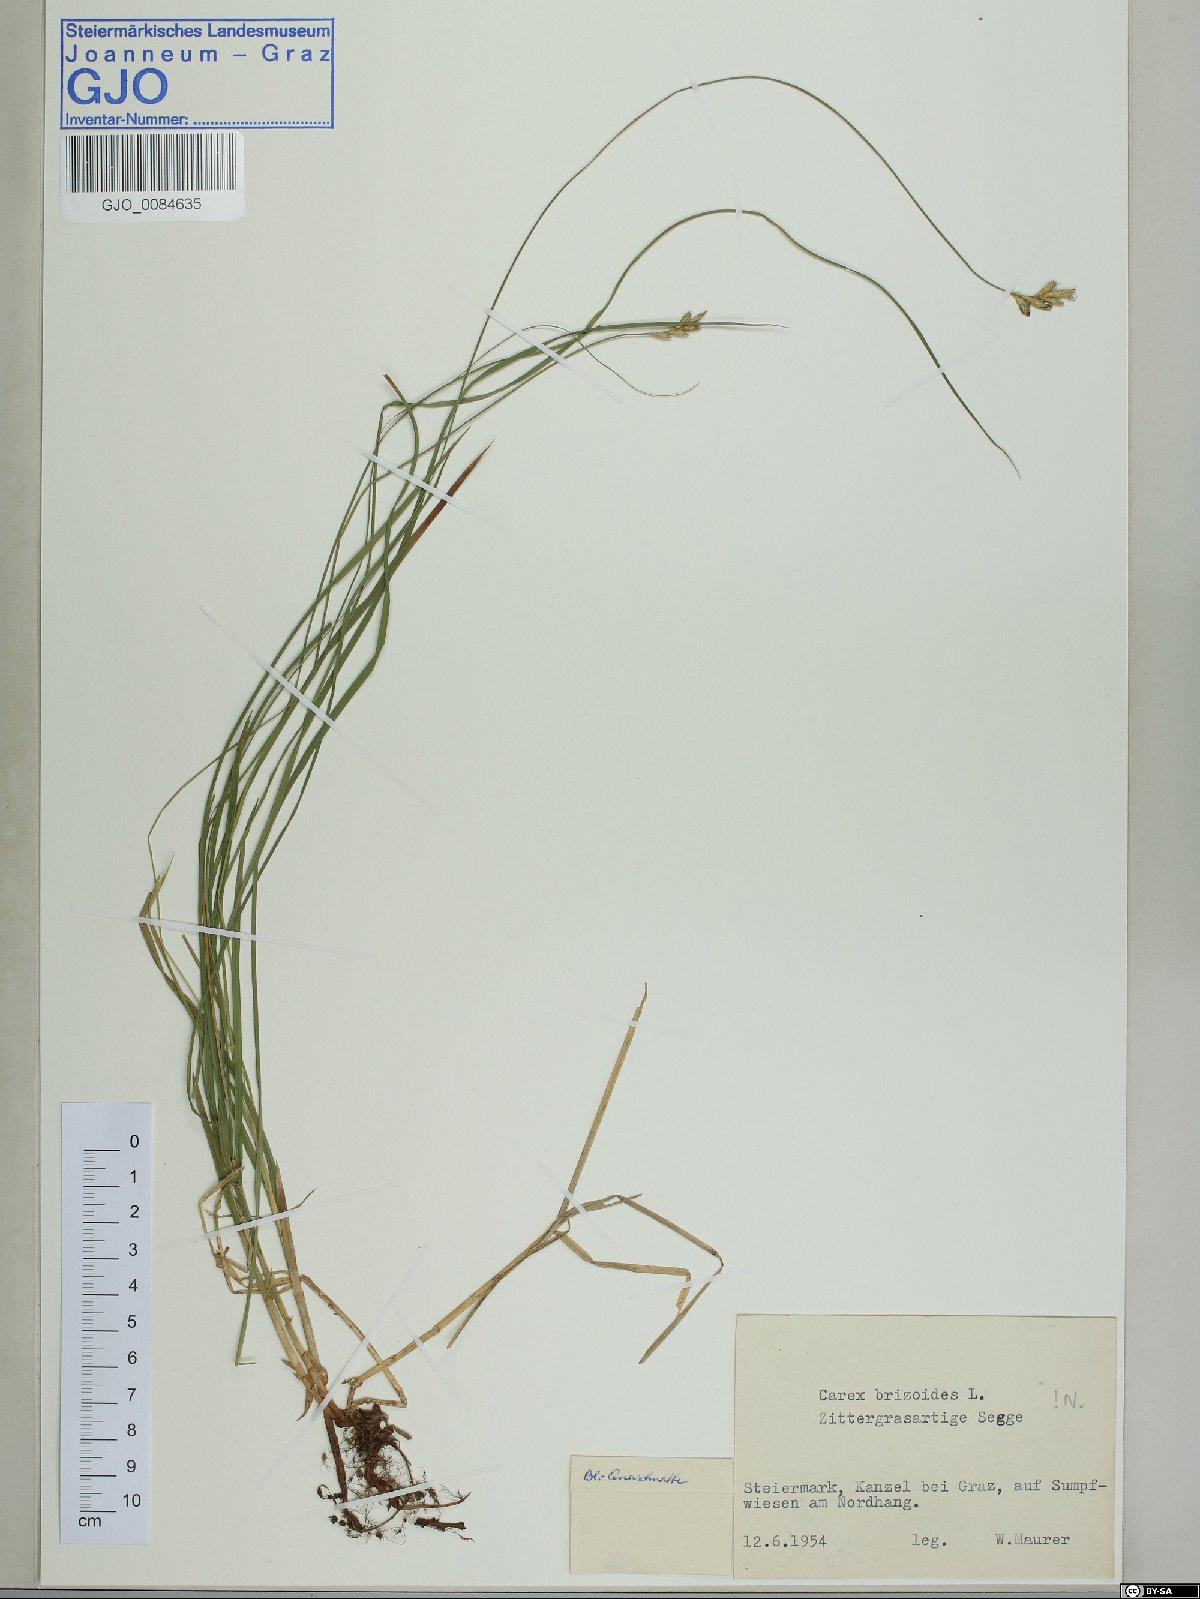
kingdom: Plantae
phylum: Tracheophyta
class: Liliopsida
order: Poales
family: Cyperaceae
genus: Carex
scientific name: Carex brizoides
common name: Quaking-grass sedge
